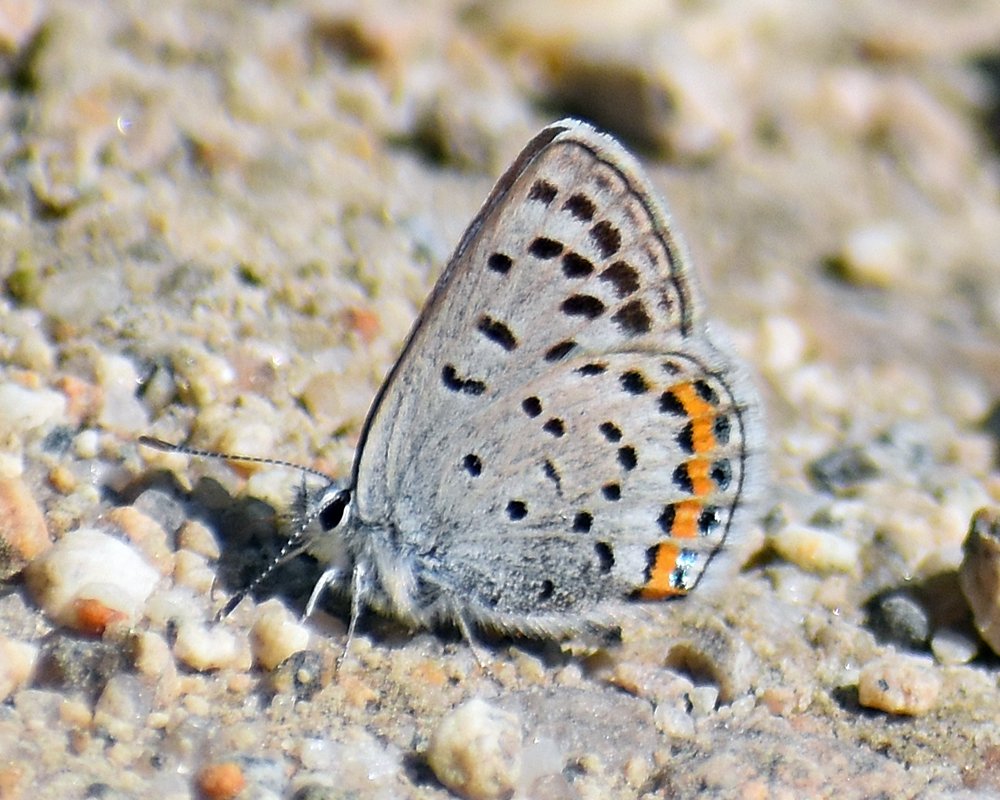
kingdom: Animalia
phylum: Arthropoda
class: Insecta
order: Lepidoptera
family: Lycaenidae
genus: Plebejus
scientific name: Plebejus lupini
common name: Lupine Blue
